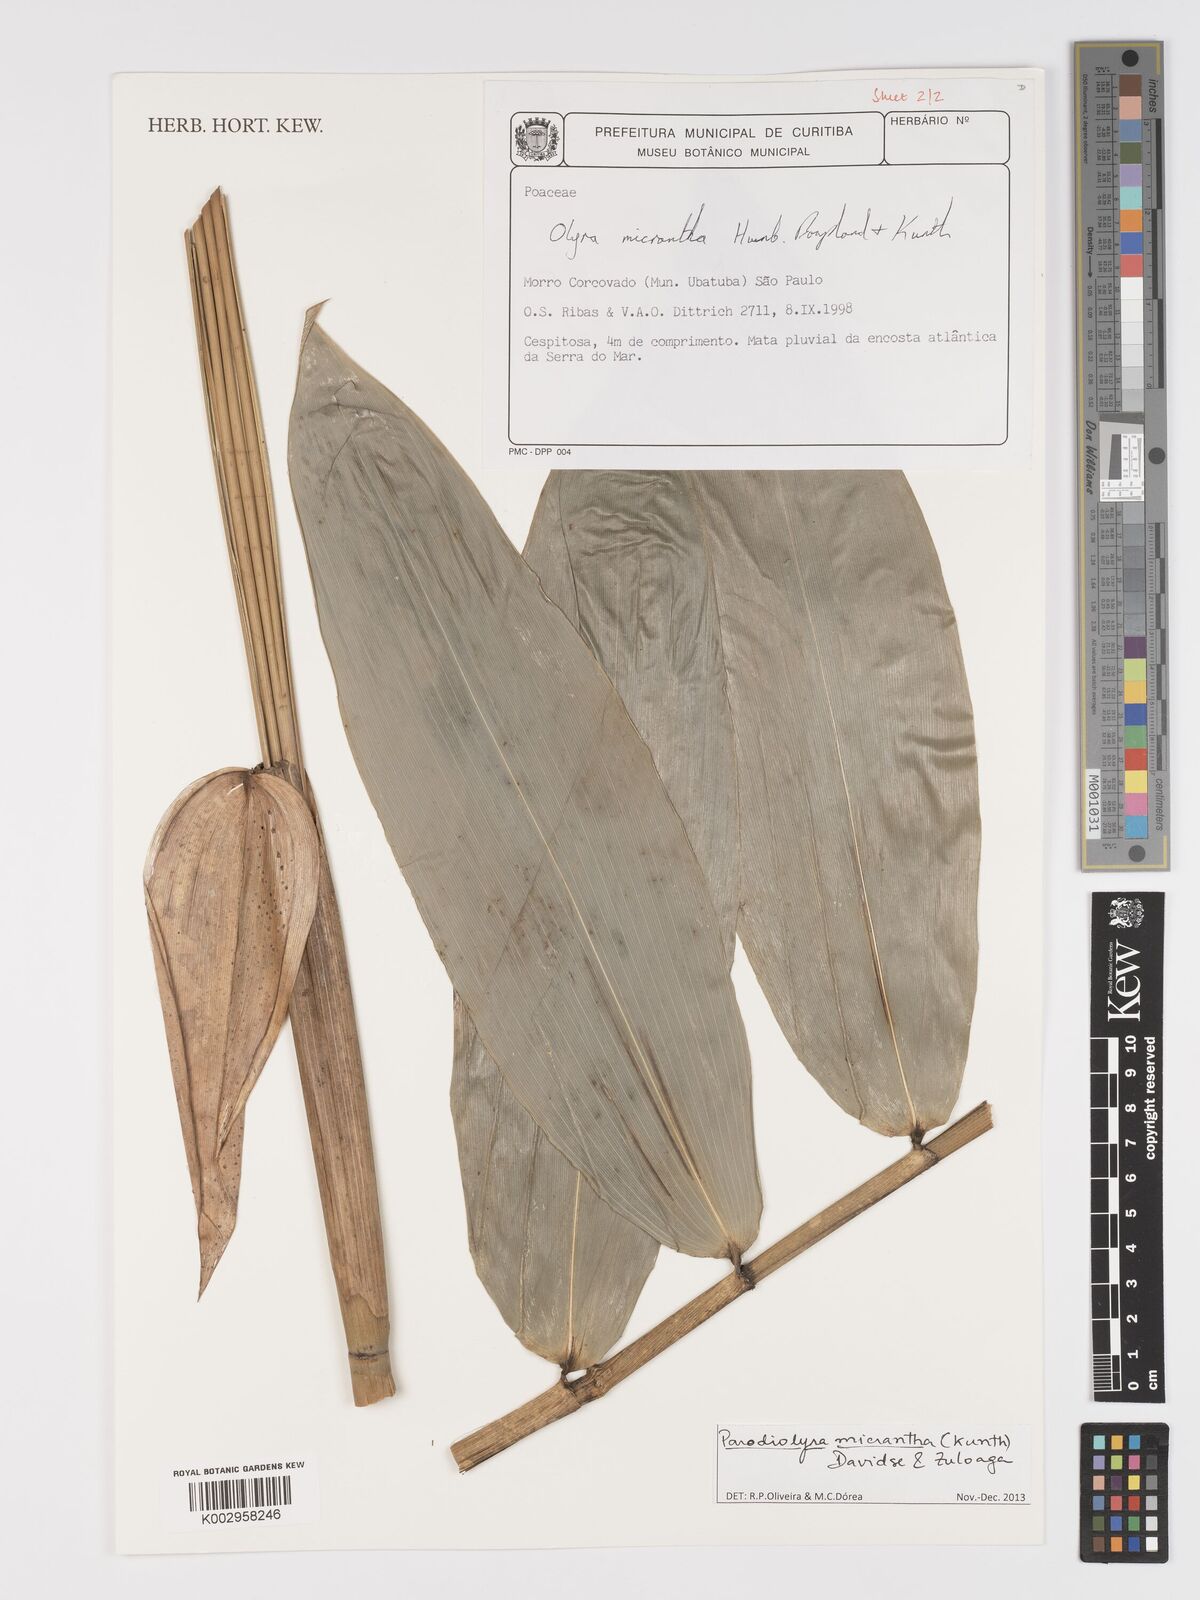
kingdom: Plantae
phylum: Tracheophyta
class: Liliopsida
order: Poales
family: Poaceae
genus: Parodiolyra
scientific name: Parodiolyra
